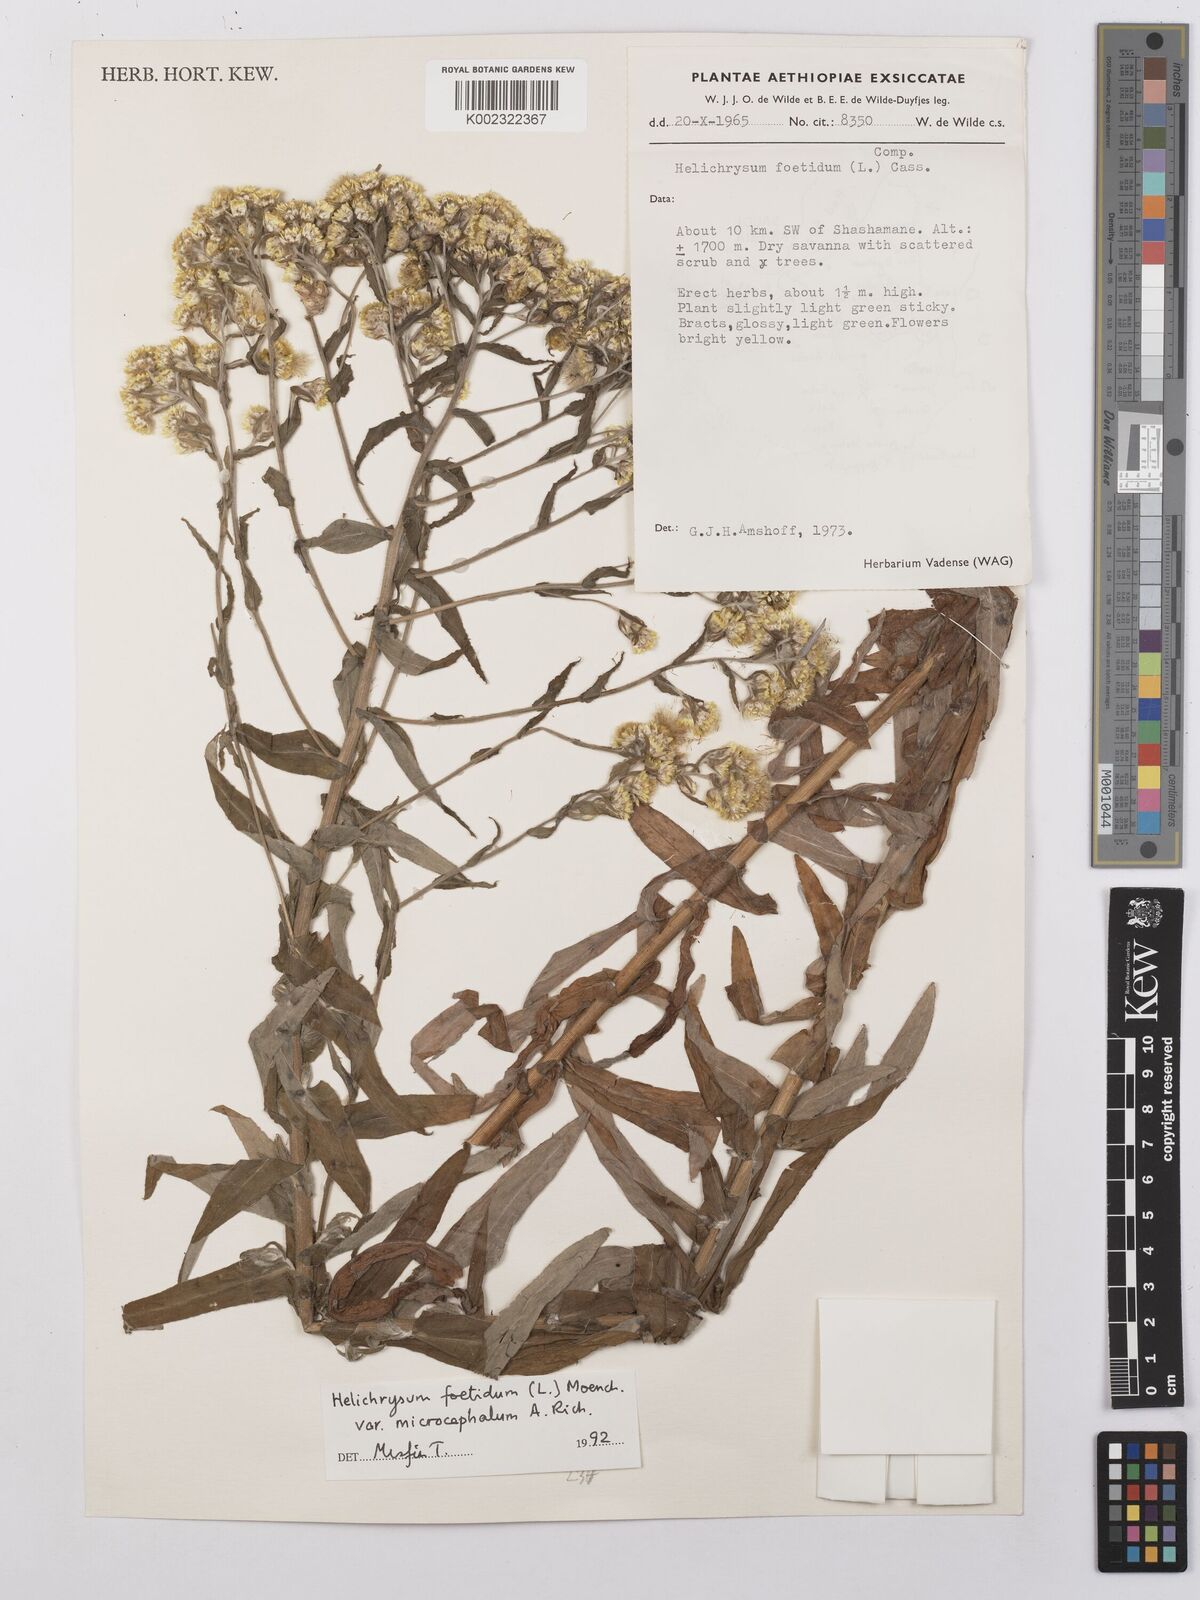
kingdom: Plantae
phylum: Tracheophyta
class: Magnoliopsida
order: Asterales
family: Asteraceae
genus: Helichrysum
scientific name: Helichrysum foetidum
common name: Stinking everlasting
